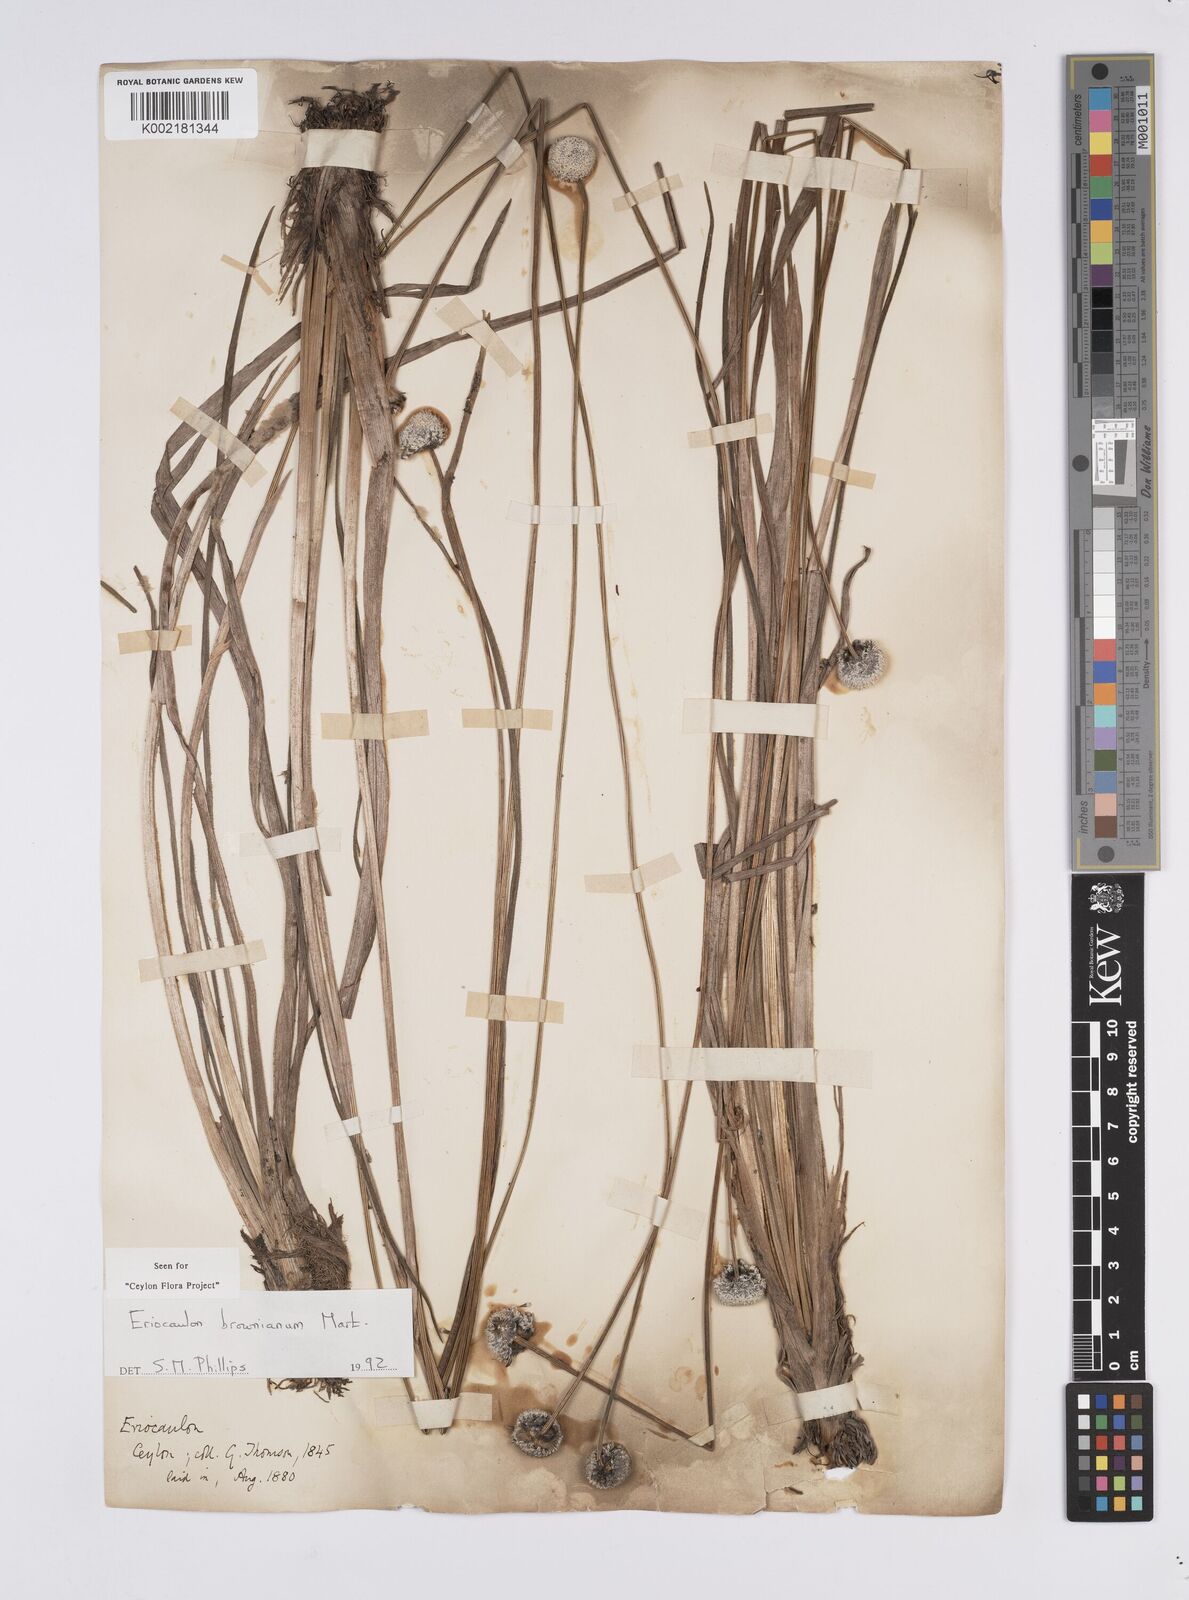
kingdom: Plantae
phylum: Tracheophyta
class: Liliopsida
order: Poales
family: Eriocaulaceae
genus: Eriocaulon
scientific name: Eriocaulon brownianum
